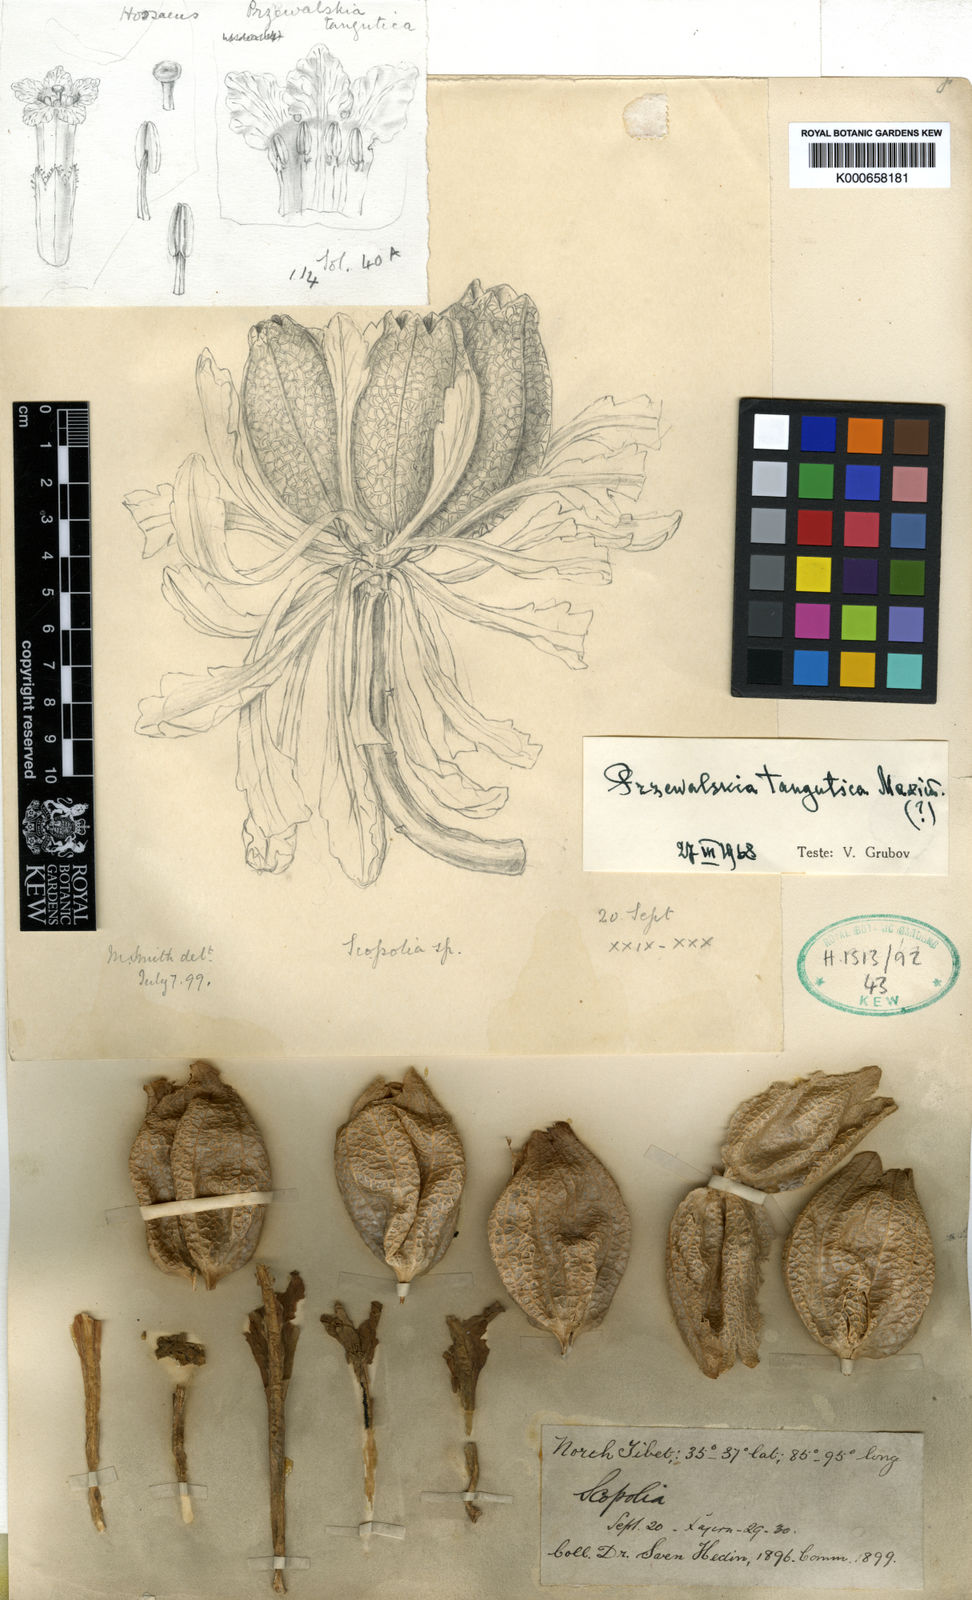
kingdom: Plantae
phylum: Tracheophyta
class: Magnoliopsida
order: Solanales
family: Solanaceae
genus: Przewalskia
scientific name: Przewalskia tangutica
